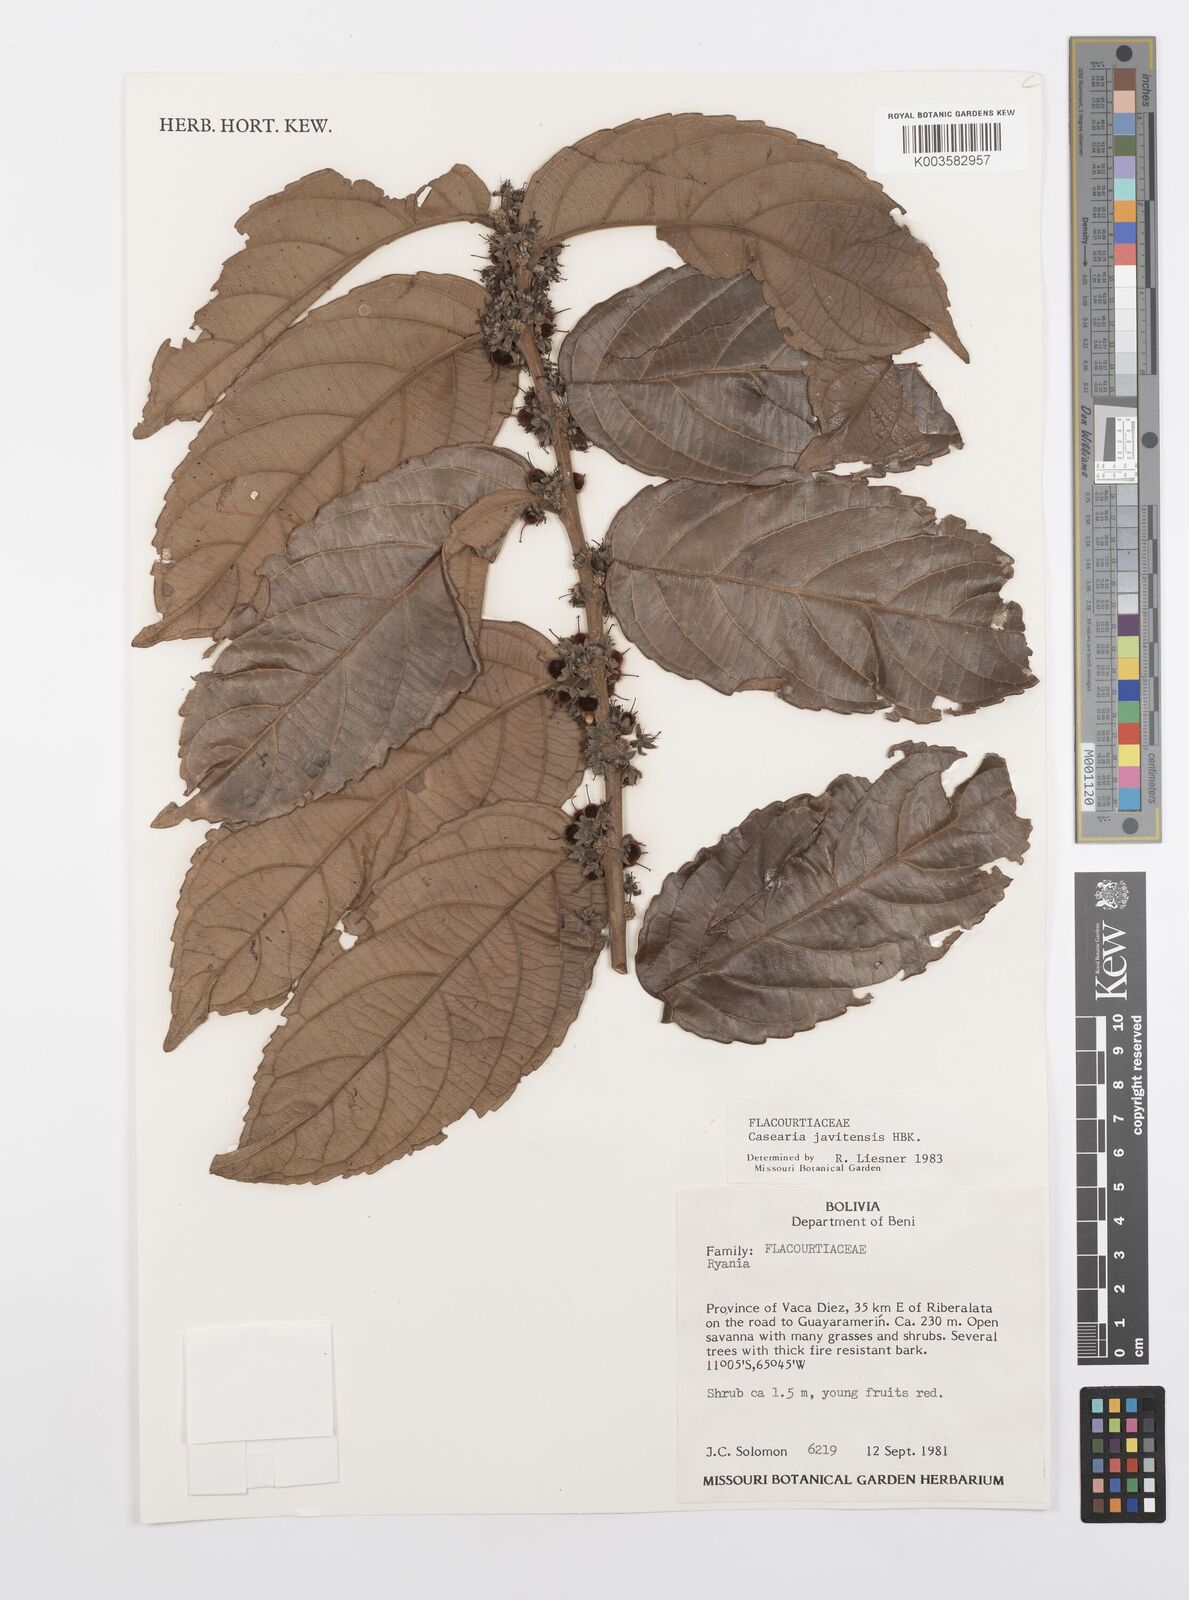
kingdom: Plantae
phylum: Tracheophyta
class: Magnoliopsida
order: Malpighiales
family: Salicaceae
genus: Piparea
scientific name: Piparea multiflora
